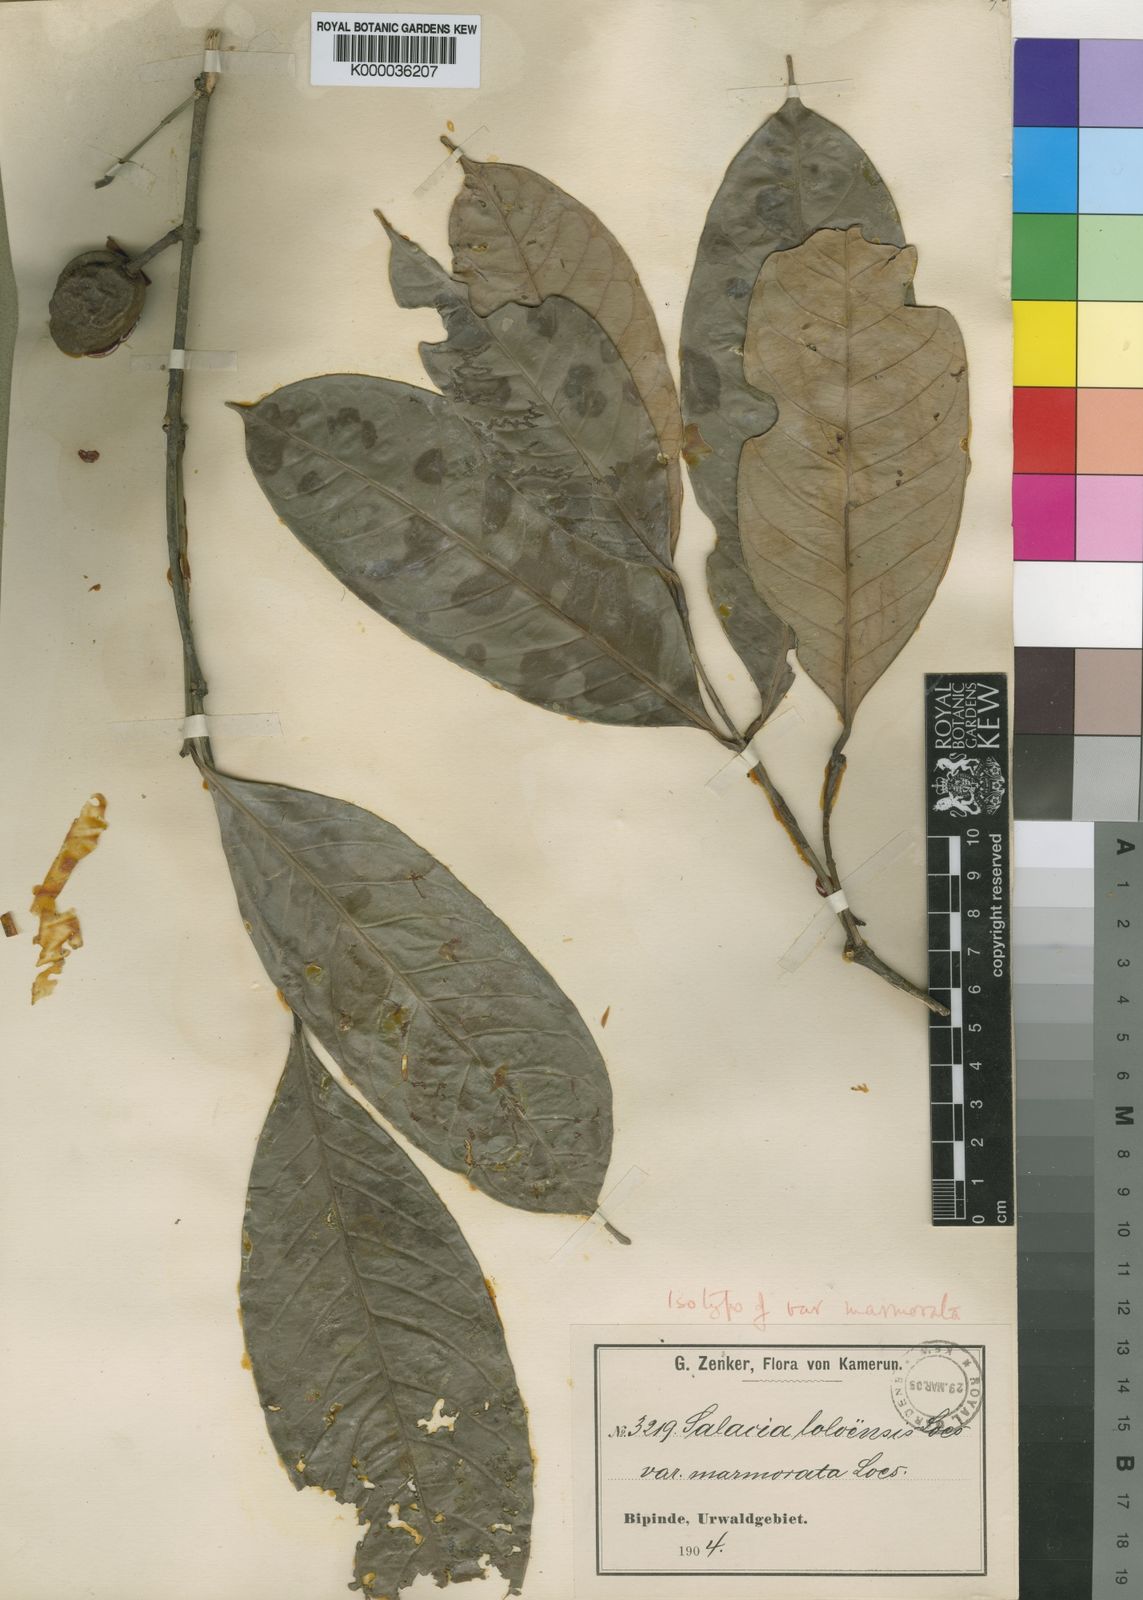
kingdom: Plantae
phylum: Tracheophyta
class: Magnoliopsida
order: Celastrales
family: Celastraceae
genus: Salacia
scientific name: Salacia loloensis
